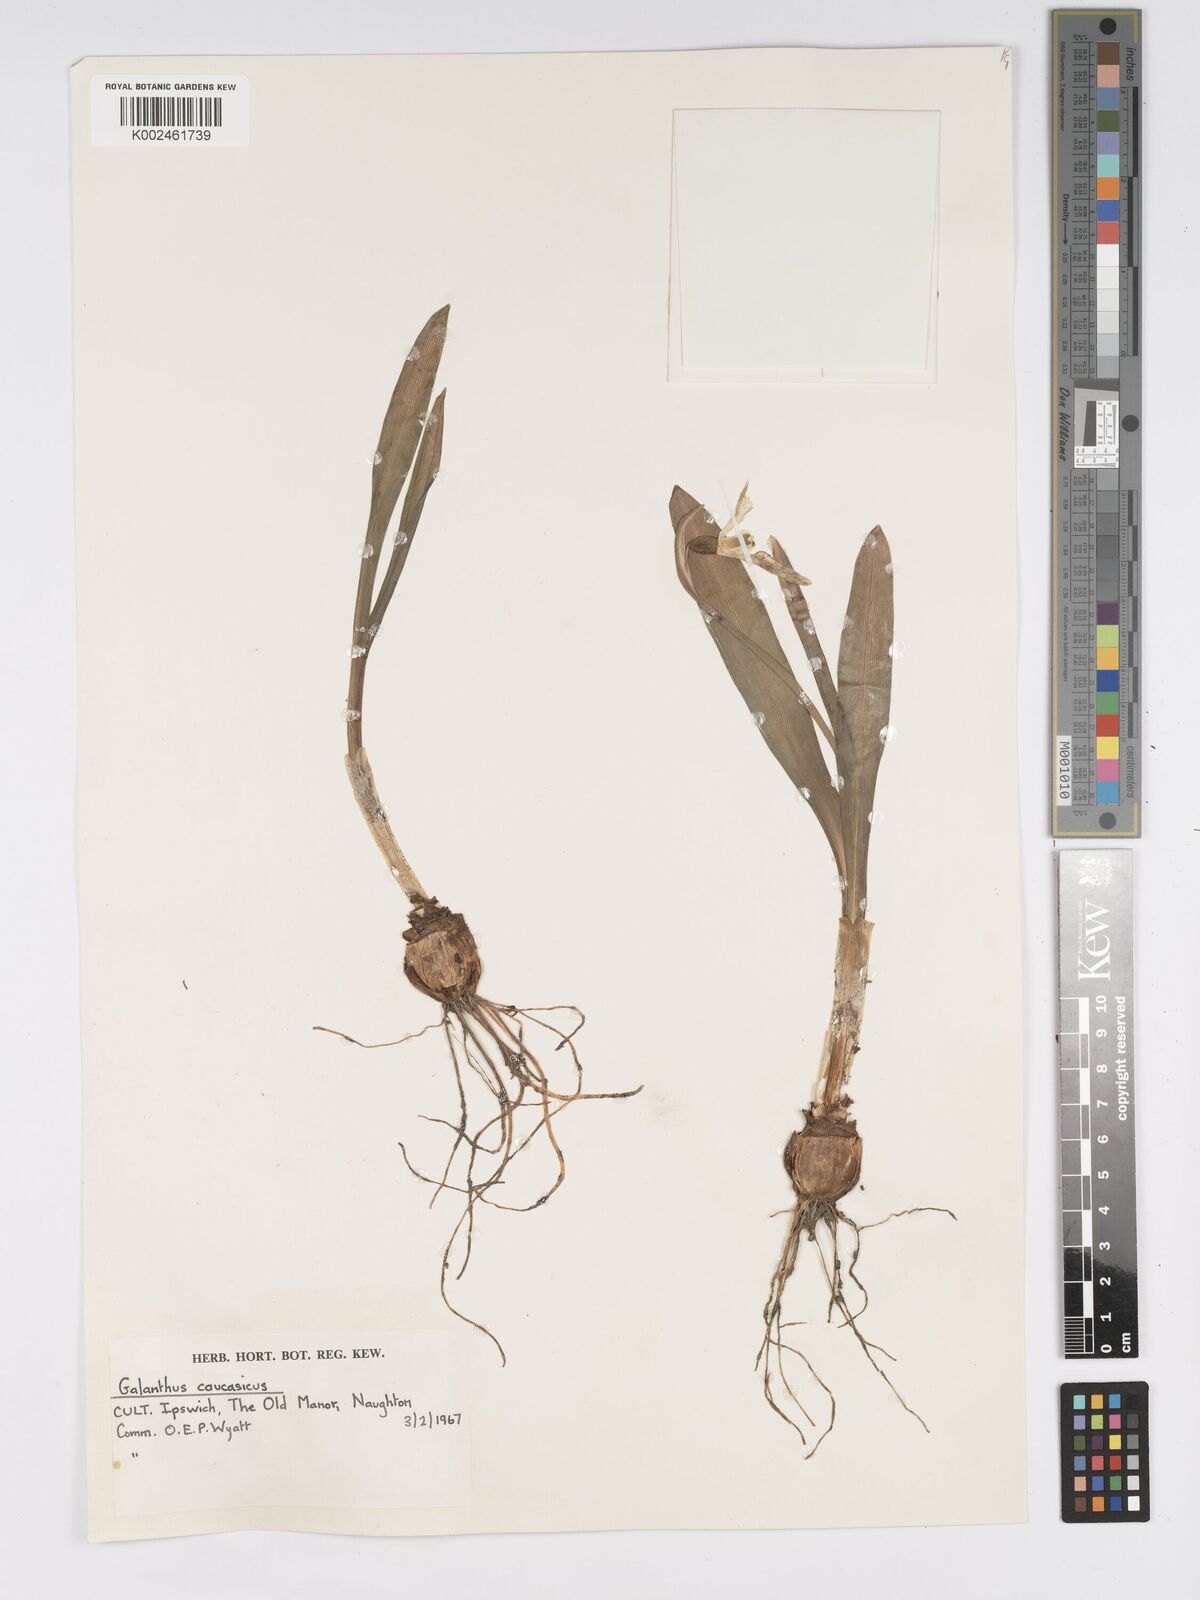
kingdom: Plantae
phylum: Tracheophyta
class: Liliopsida
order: Asparagales
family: Amaryllidaceae
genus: Galanthus
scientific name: Galanthus alpinus
